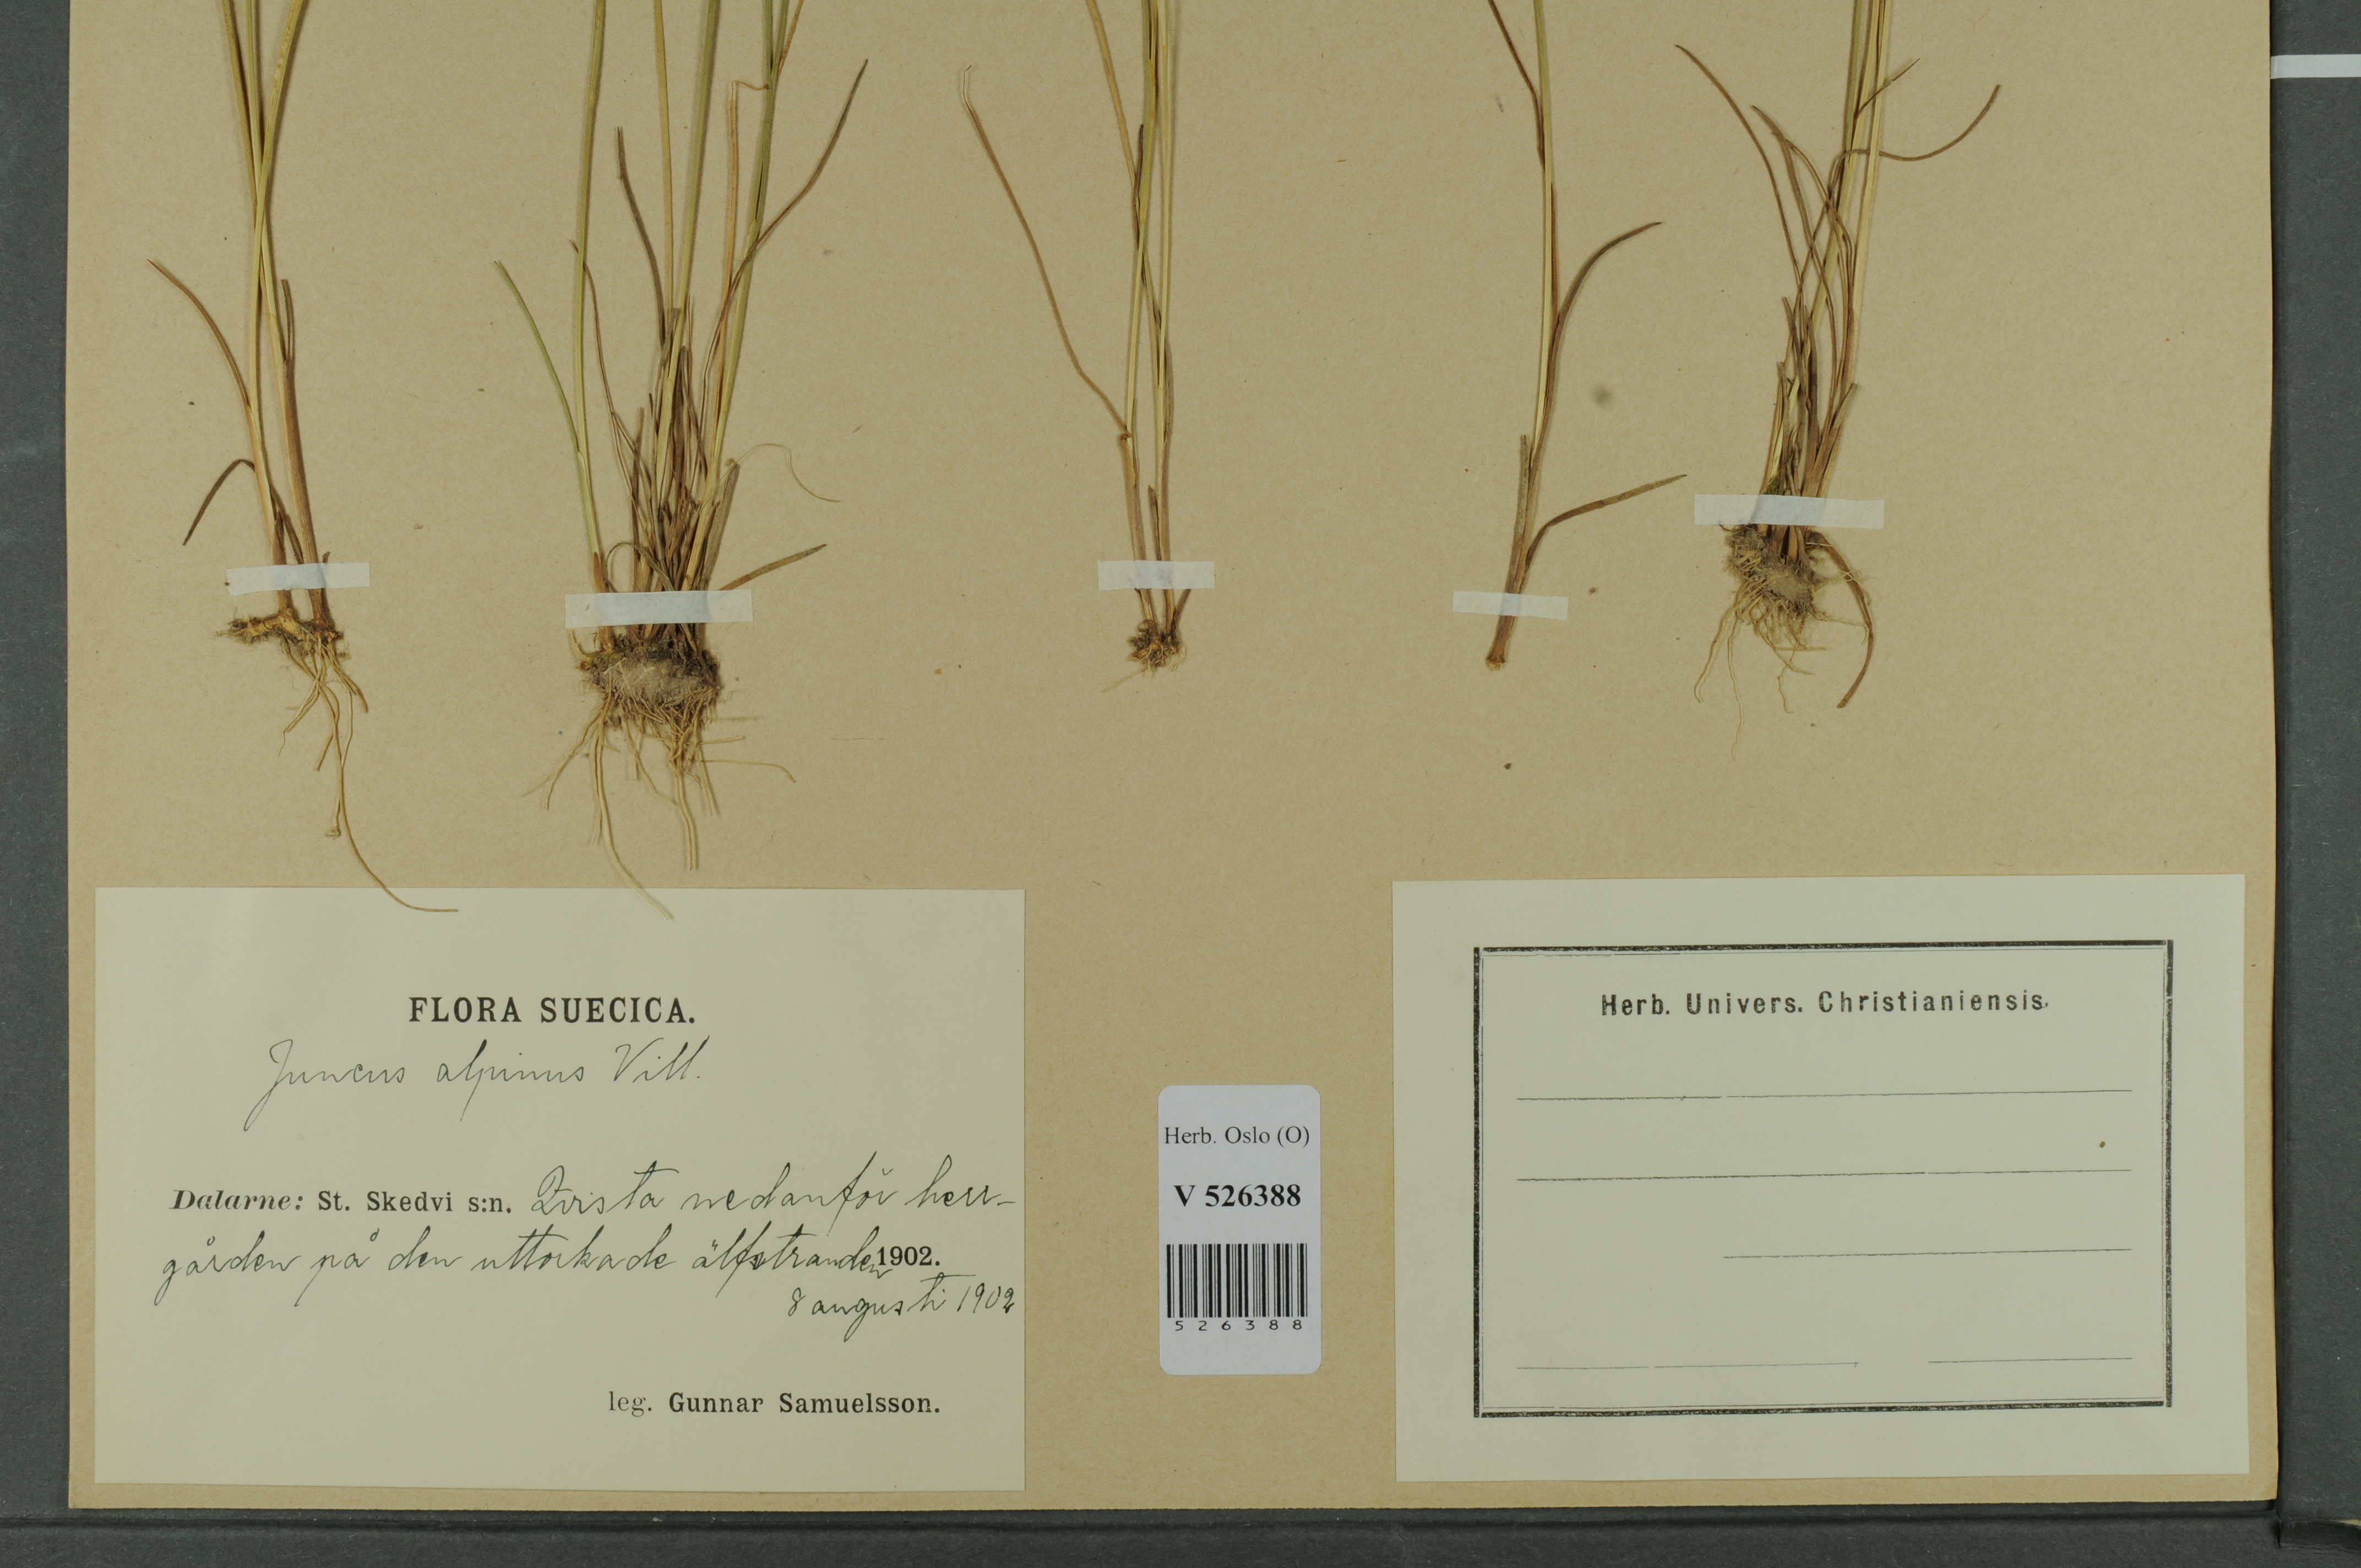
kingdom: Plantae
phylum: Tracheophyta
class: Liliopsida
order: Poales
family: Juncaceae
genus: Juncus
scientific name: Juncus alpinoarticulatus
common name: Alpine rush
